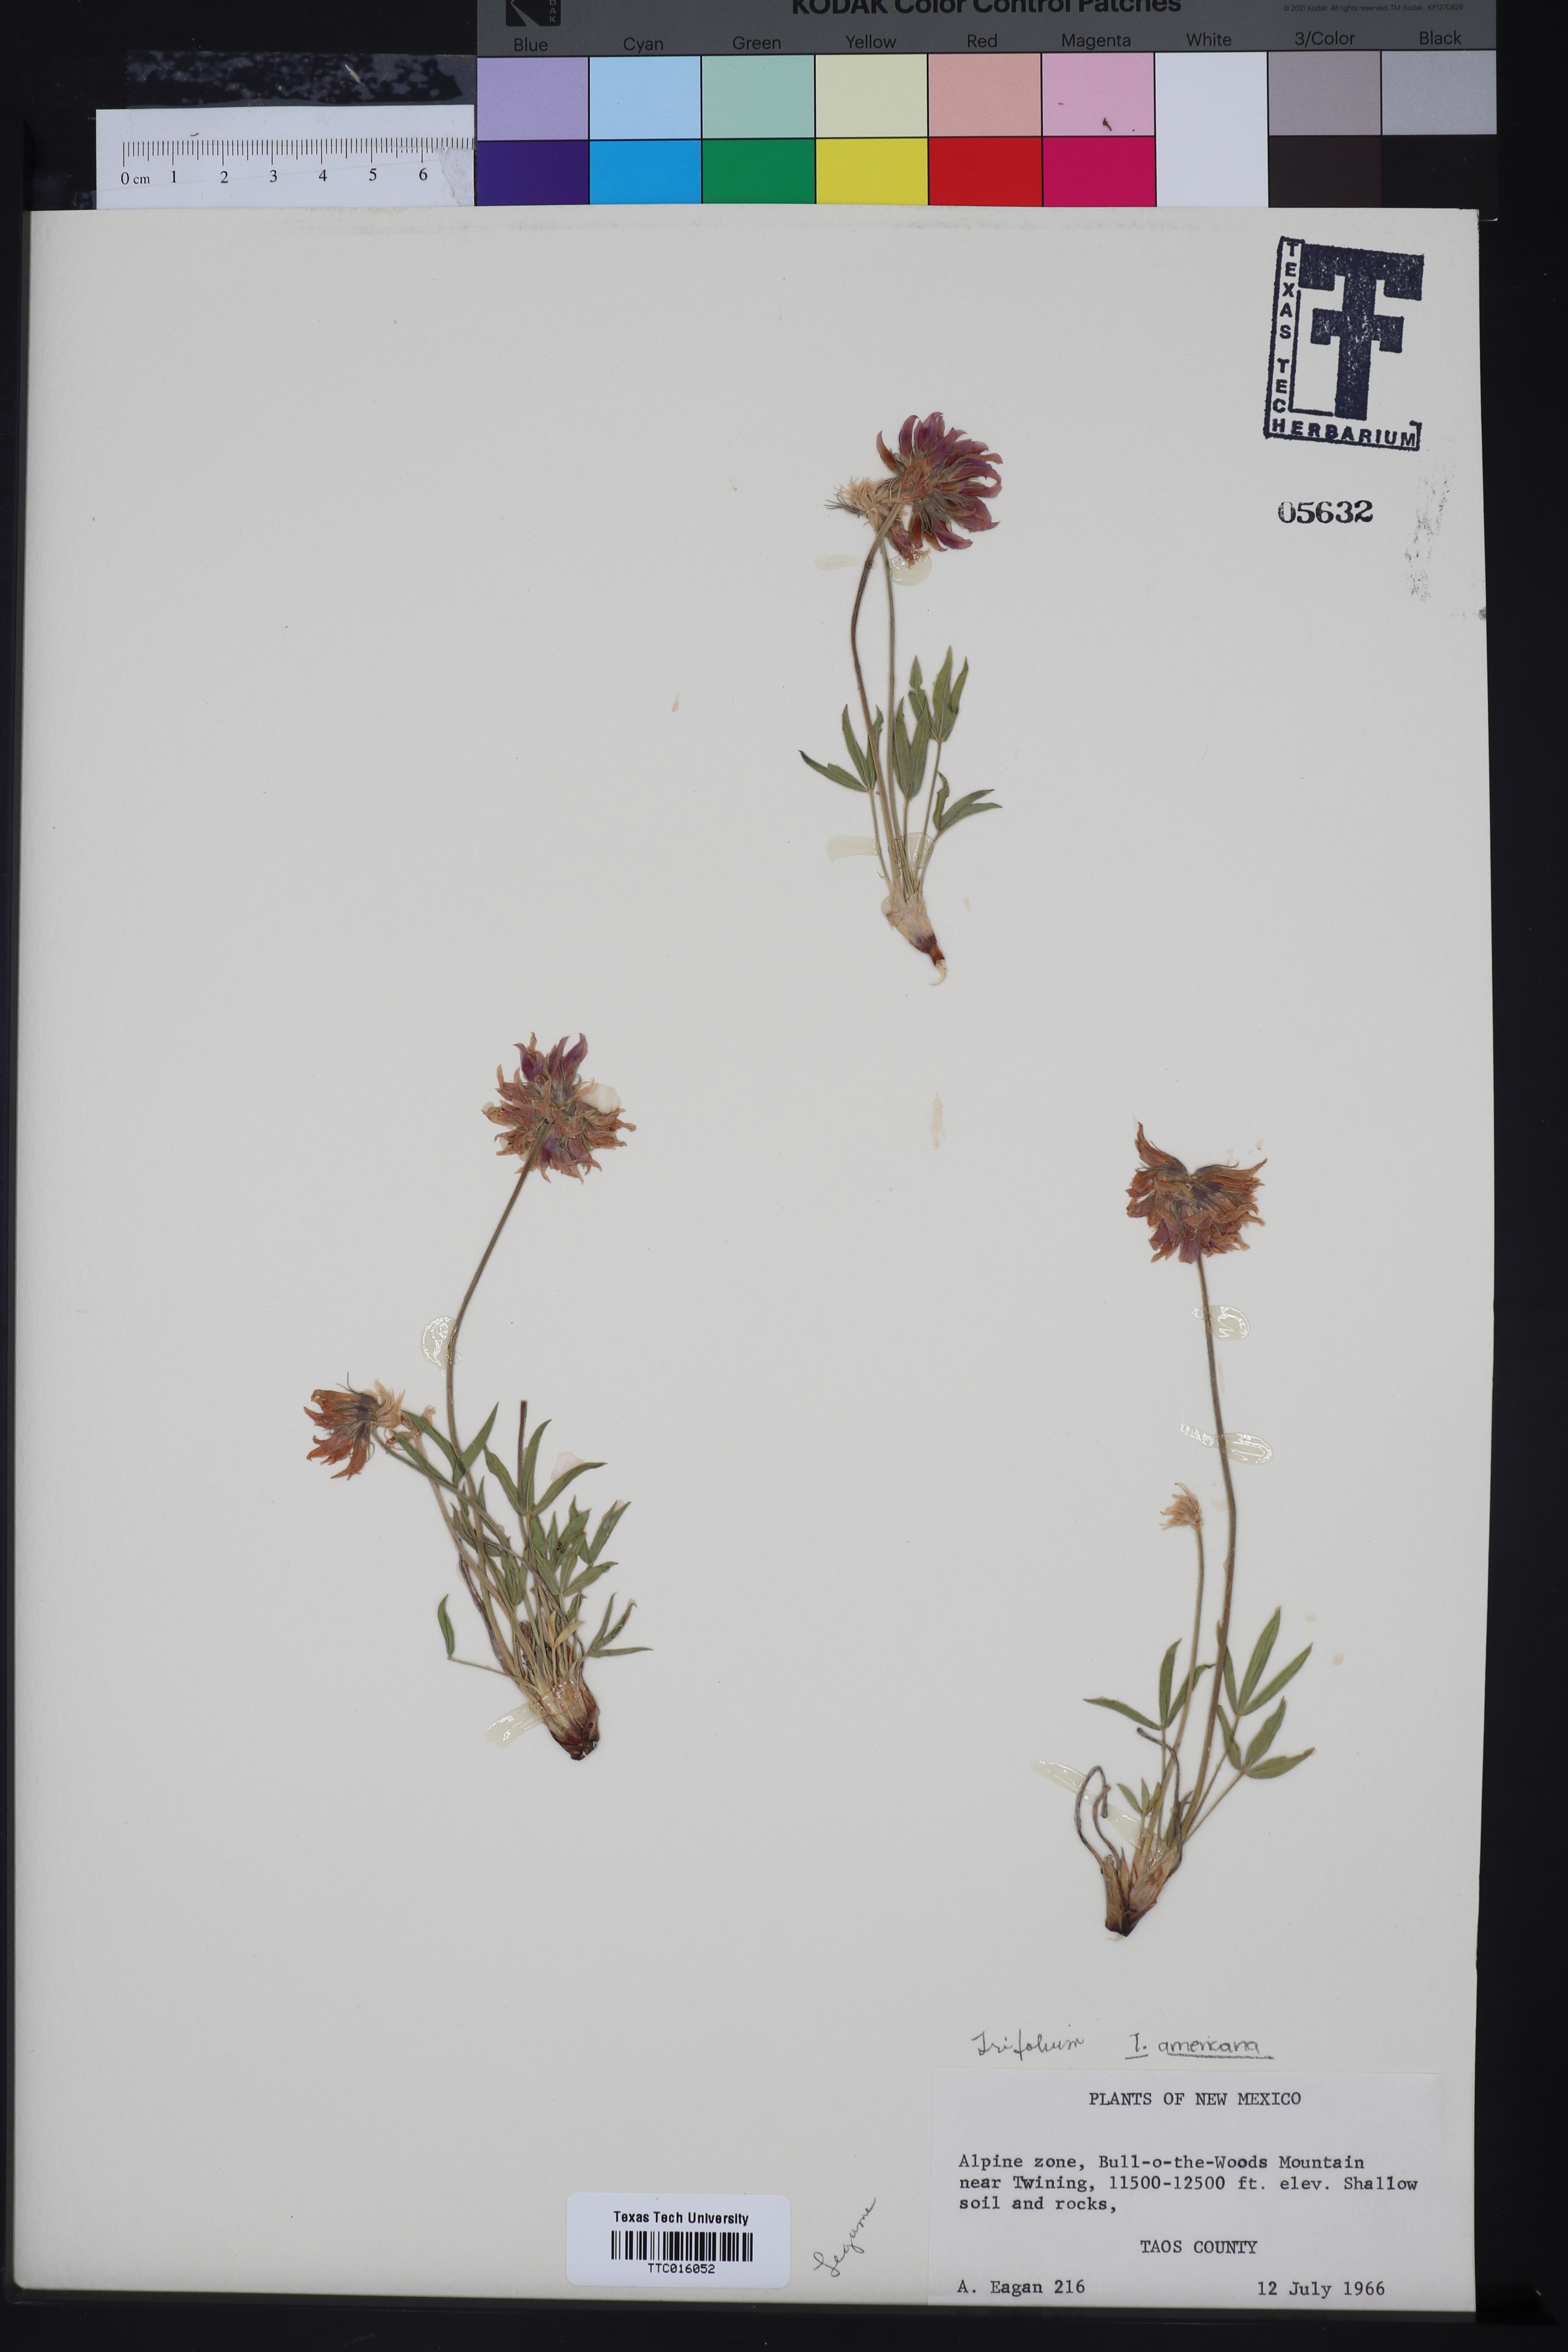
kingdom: Plantae
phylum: Tracheophyta
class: Magnoliopsida
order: Fabales
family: Fabaceae
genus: Trifolium
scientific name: Trifolium
